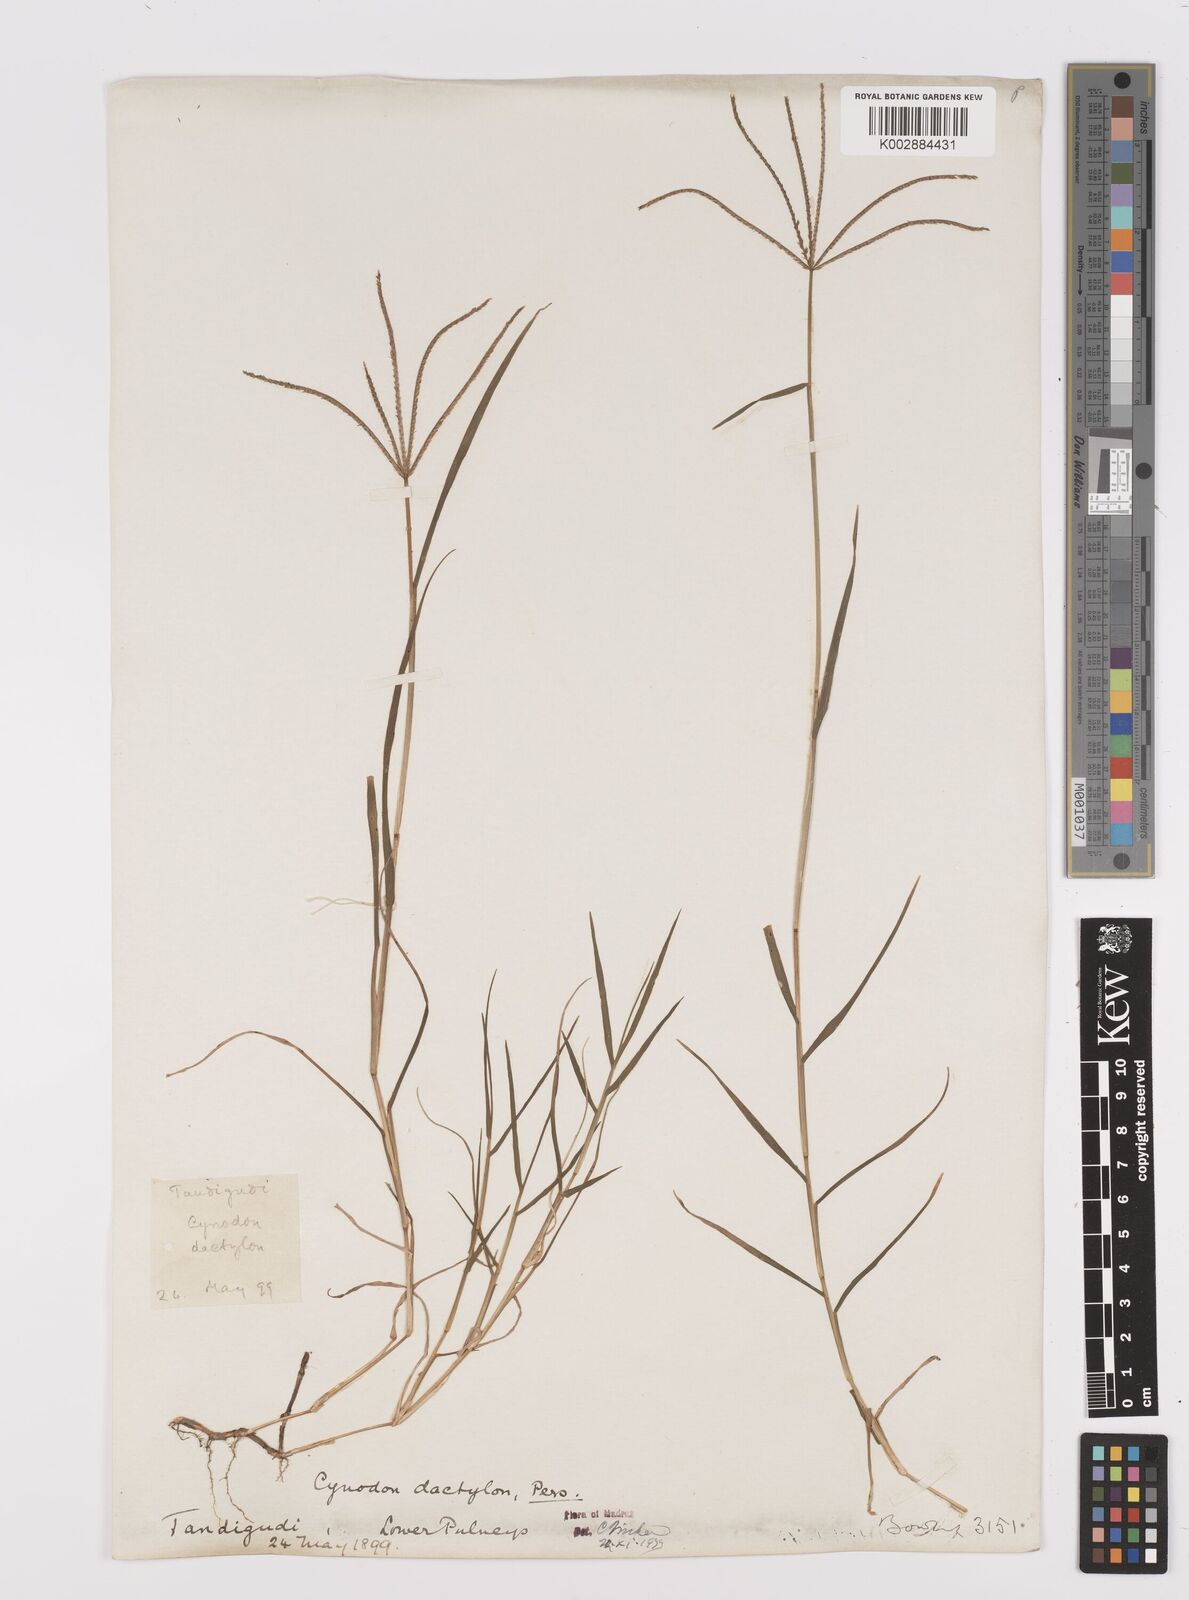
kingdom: Plantae
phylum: Tracheophyta
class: Liliopsida
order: Poales
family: Poaceae
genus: Cynodon
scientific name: Cynodon dactylon
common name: Bermuda grass
